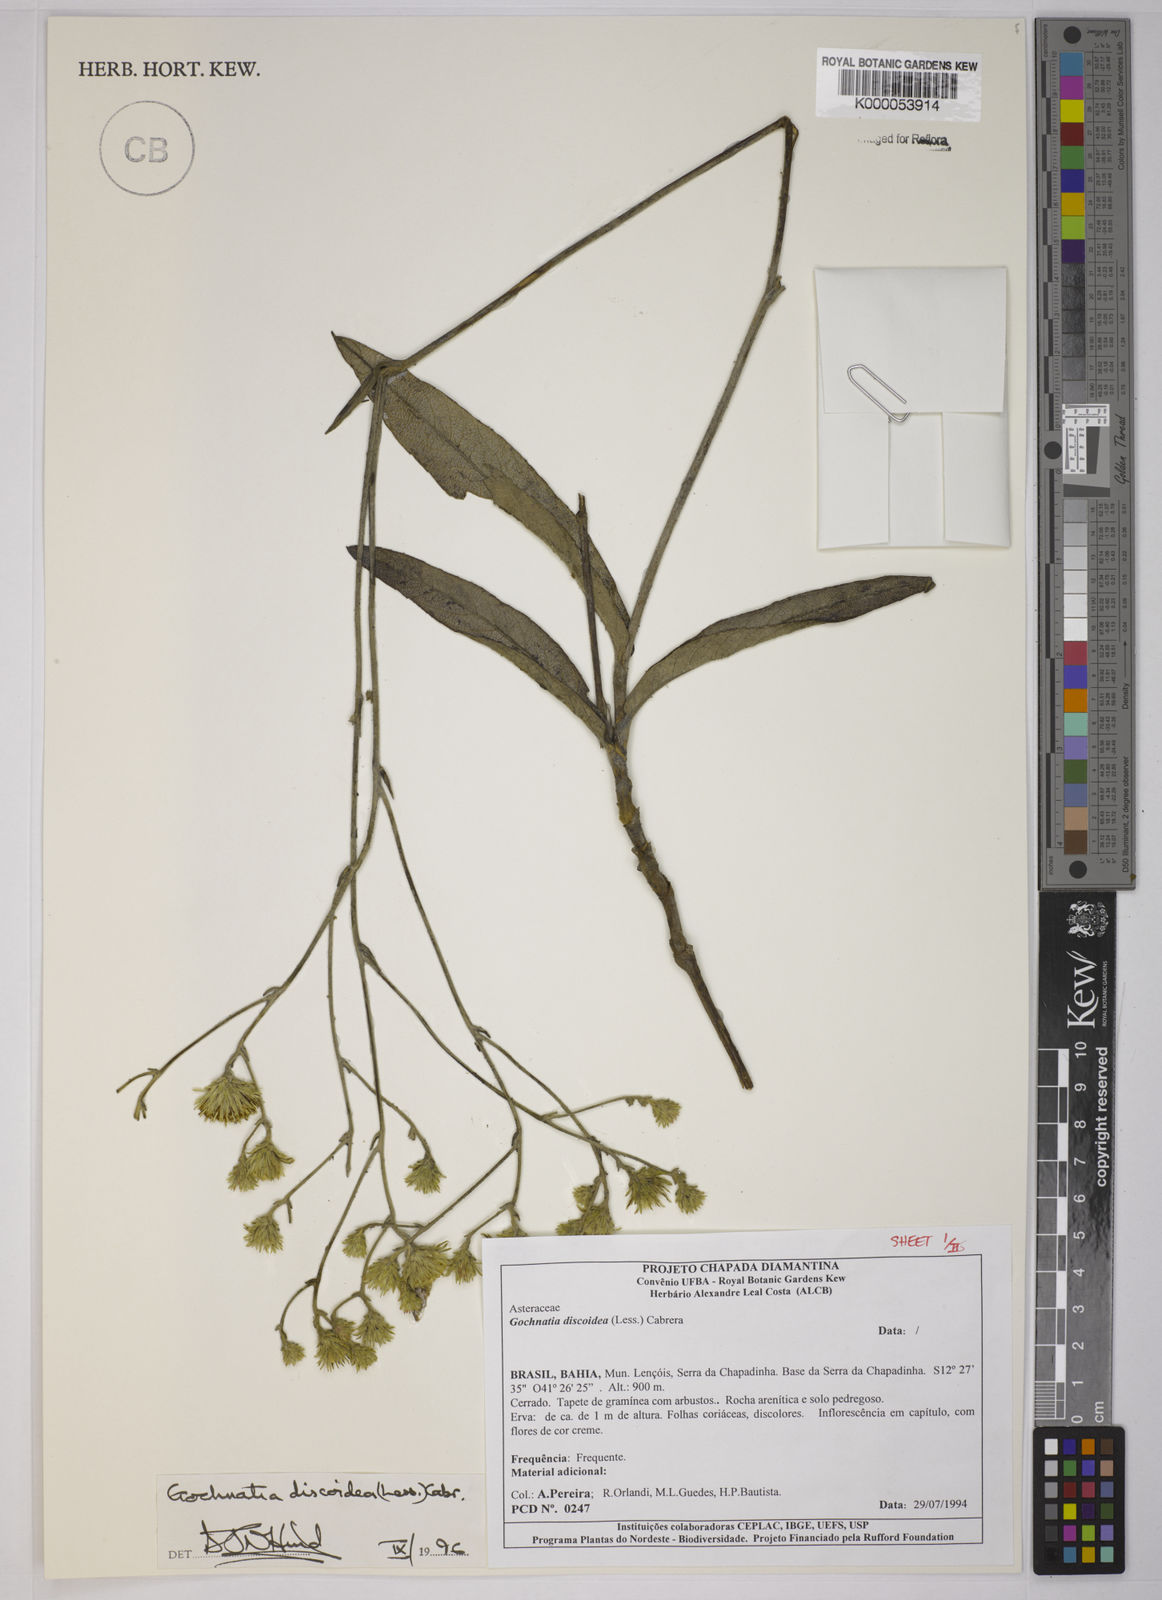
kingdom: Plantae
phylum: Tracheophyta
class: Magnoliopsida
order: Asterales
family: Asteraceae
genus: Richterago
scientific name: Richterago discoidea
